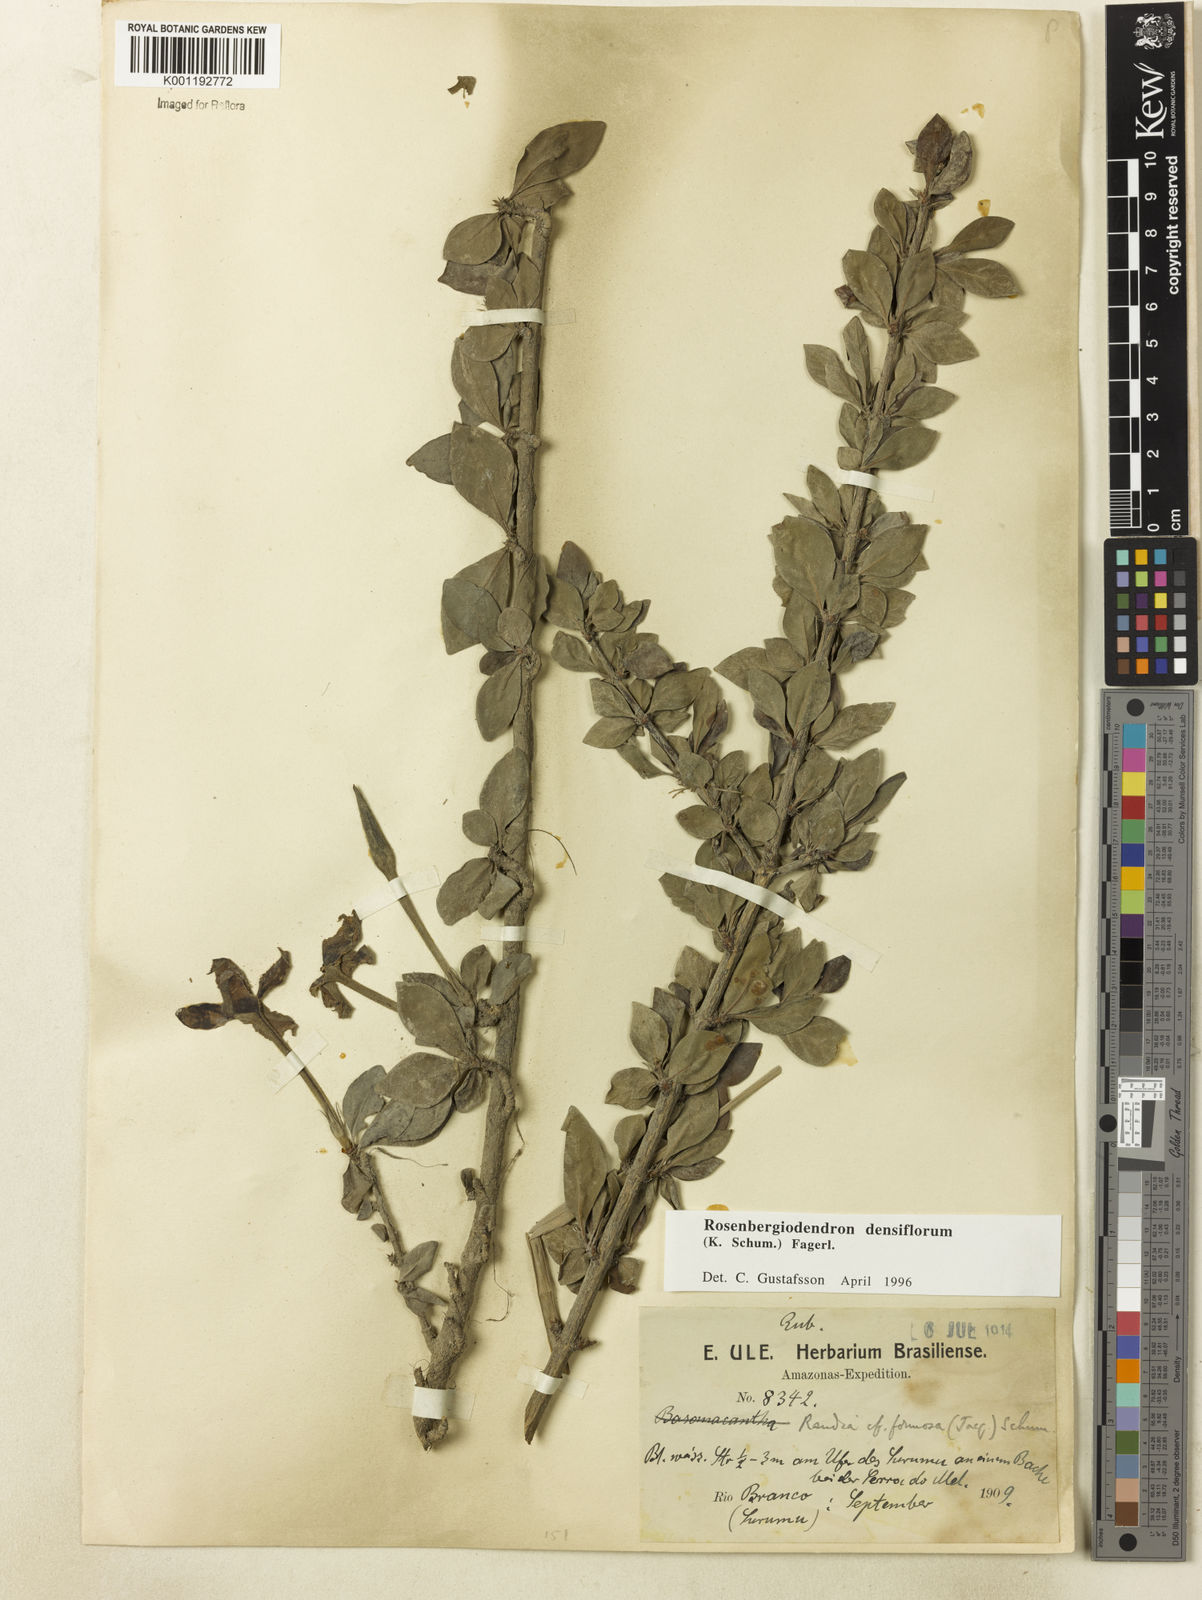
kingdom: Plantae
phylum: Tracheophyta
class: Magnoliopsida
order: Gentianales
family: Rubiaceae
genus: Rosenbergiodendron
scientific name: Rosenbergiodendron densiflorum
